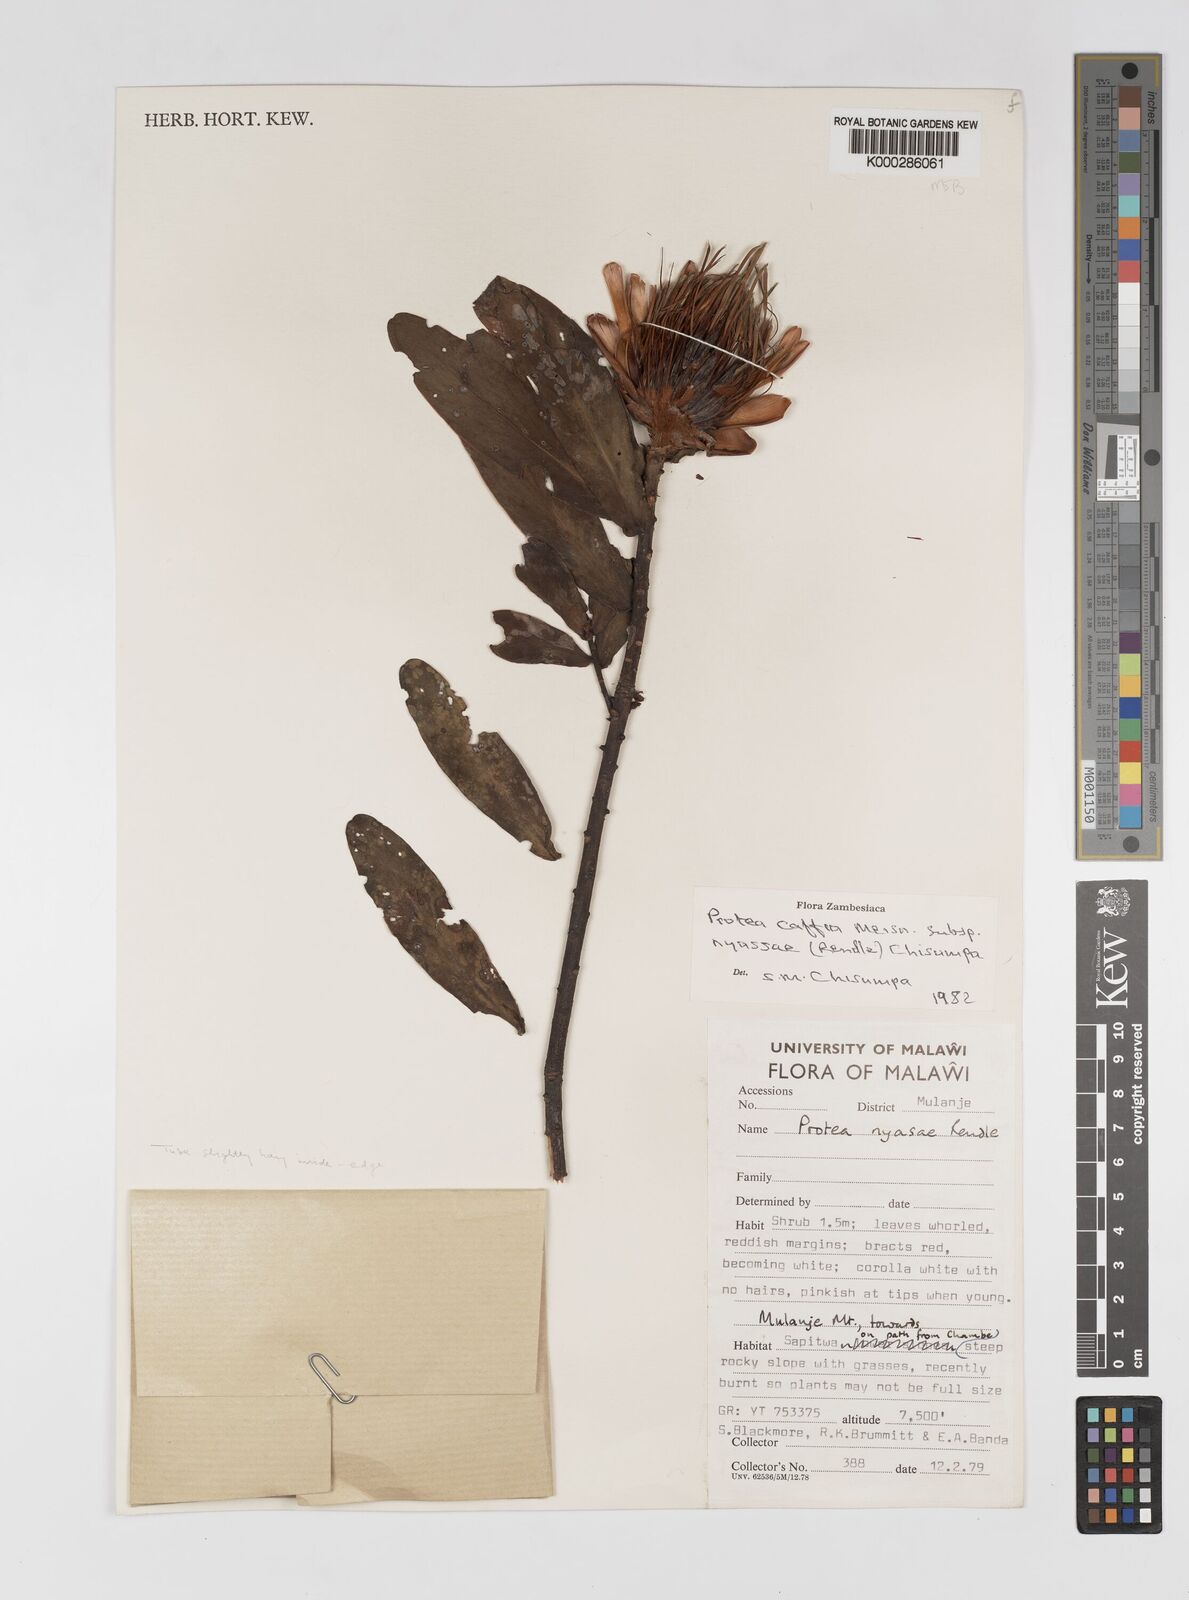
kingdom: Plantae
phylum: Tracheophyta
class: Magnoliopsida
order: Proteales
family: Proteaceae
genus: Protea
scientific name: Protea caffra
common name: Common sugarbush
